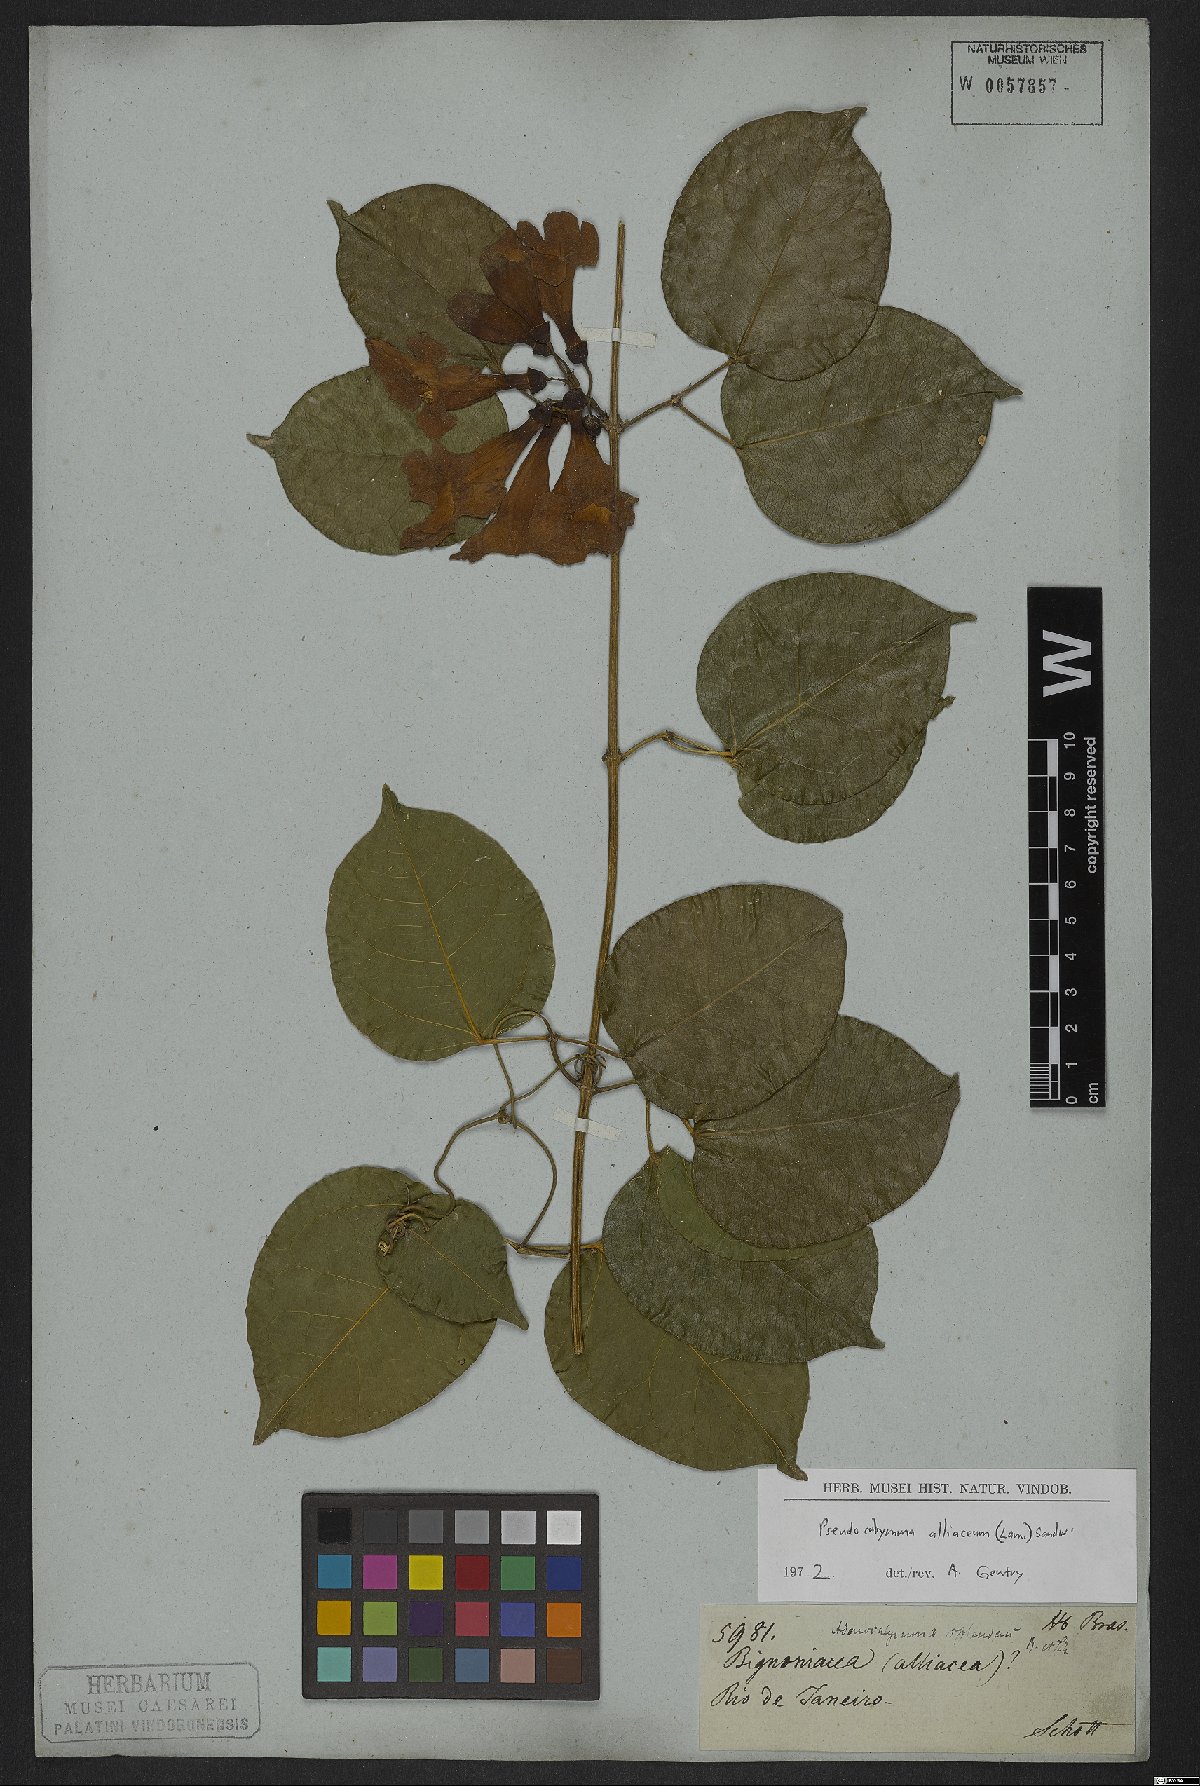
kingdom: Plantae
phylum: Tracheophyta
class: Magnoliopsida
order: Lamiales
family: Bignoniaceae
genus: Mansoa
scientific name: Mansoa alliacea
